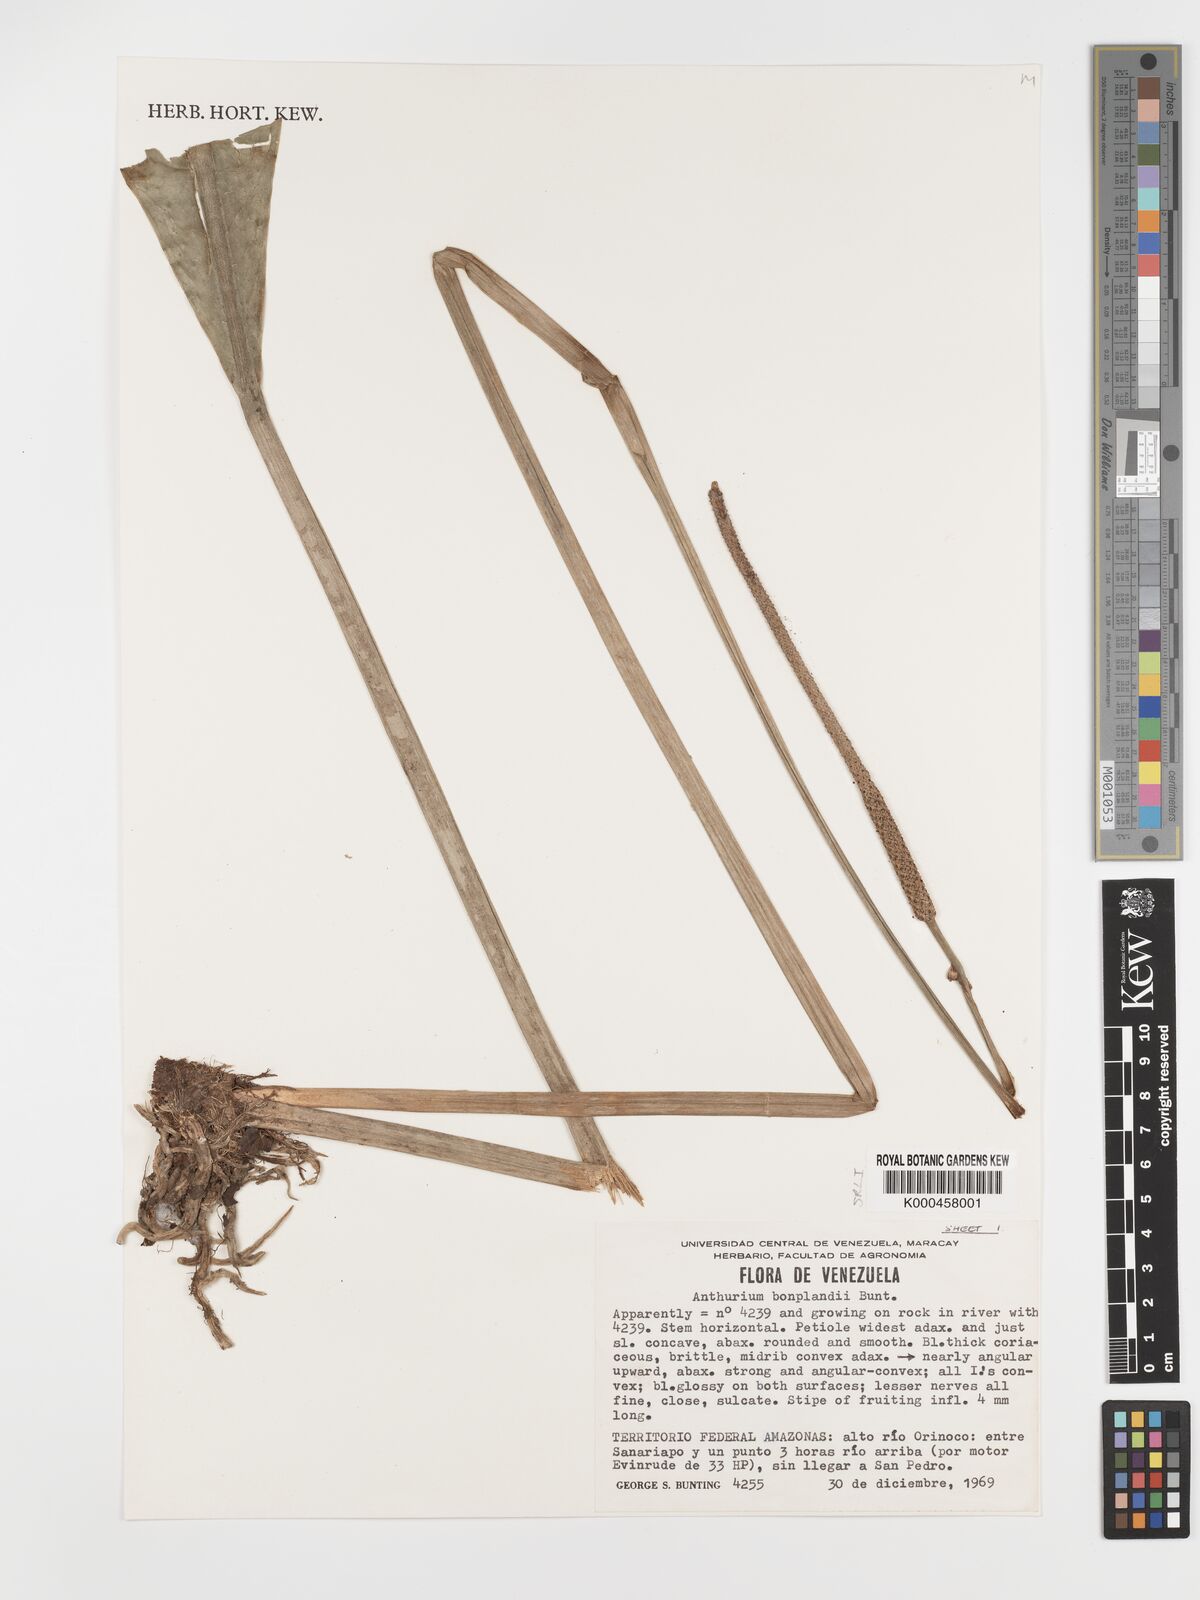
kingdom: Plantae
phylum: Tracheophyta
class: Liliopsida
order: Alismatales
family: Araceae
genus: Anthurium
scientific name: Anthurium bonplandii
